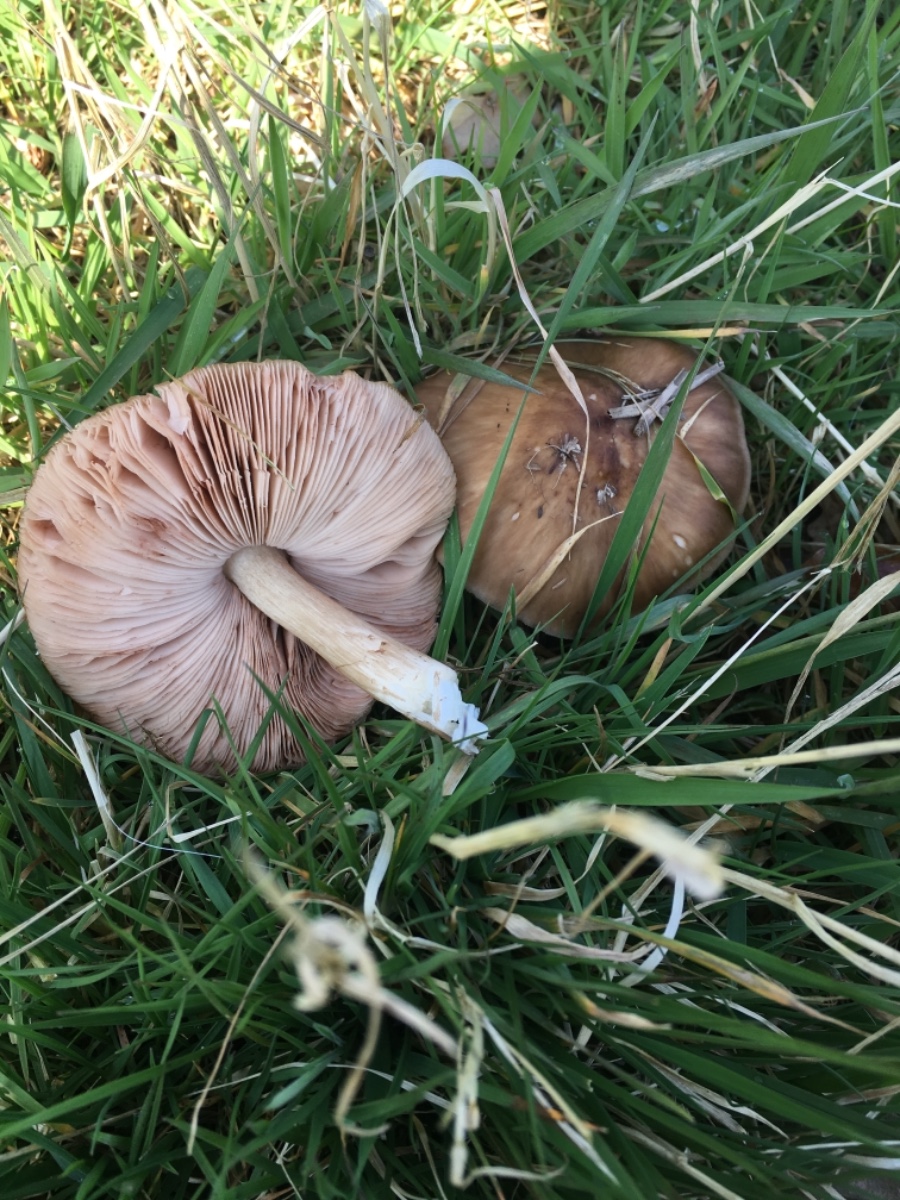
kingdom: Fungi
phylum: Basidiomycota
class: Agaricomycetes
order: Agaricales
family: Pluteaceae
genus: Pluteus
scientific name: Pluteus cervinus
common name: sodfarvet skærmhat
